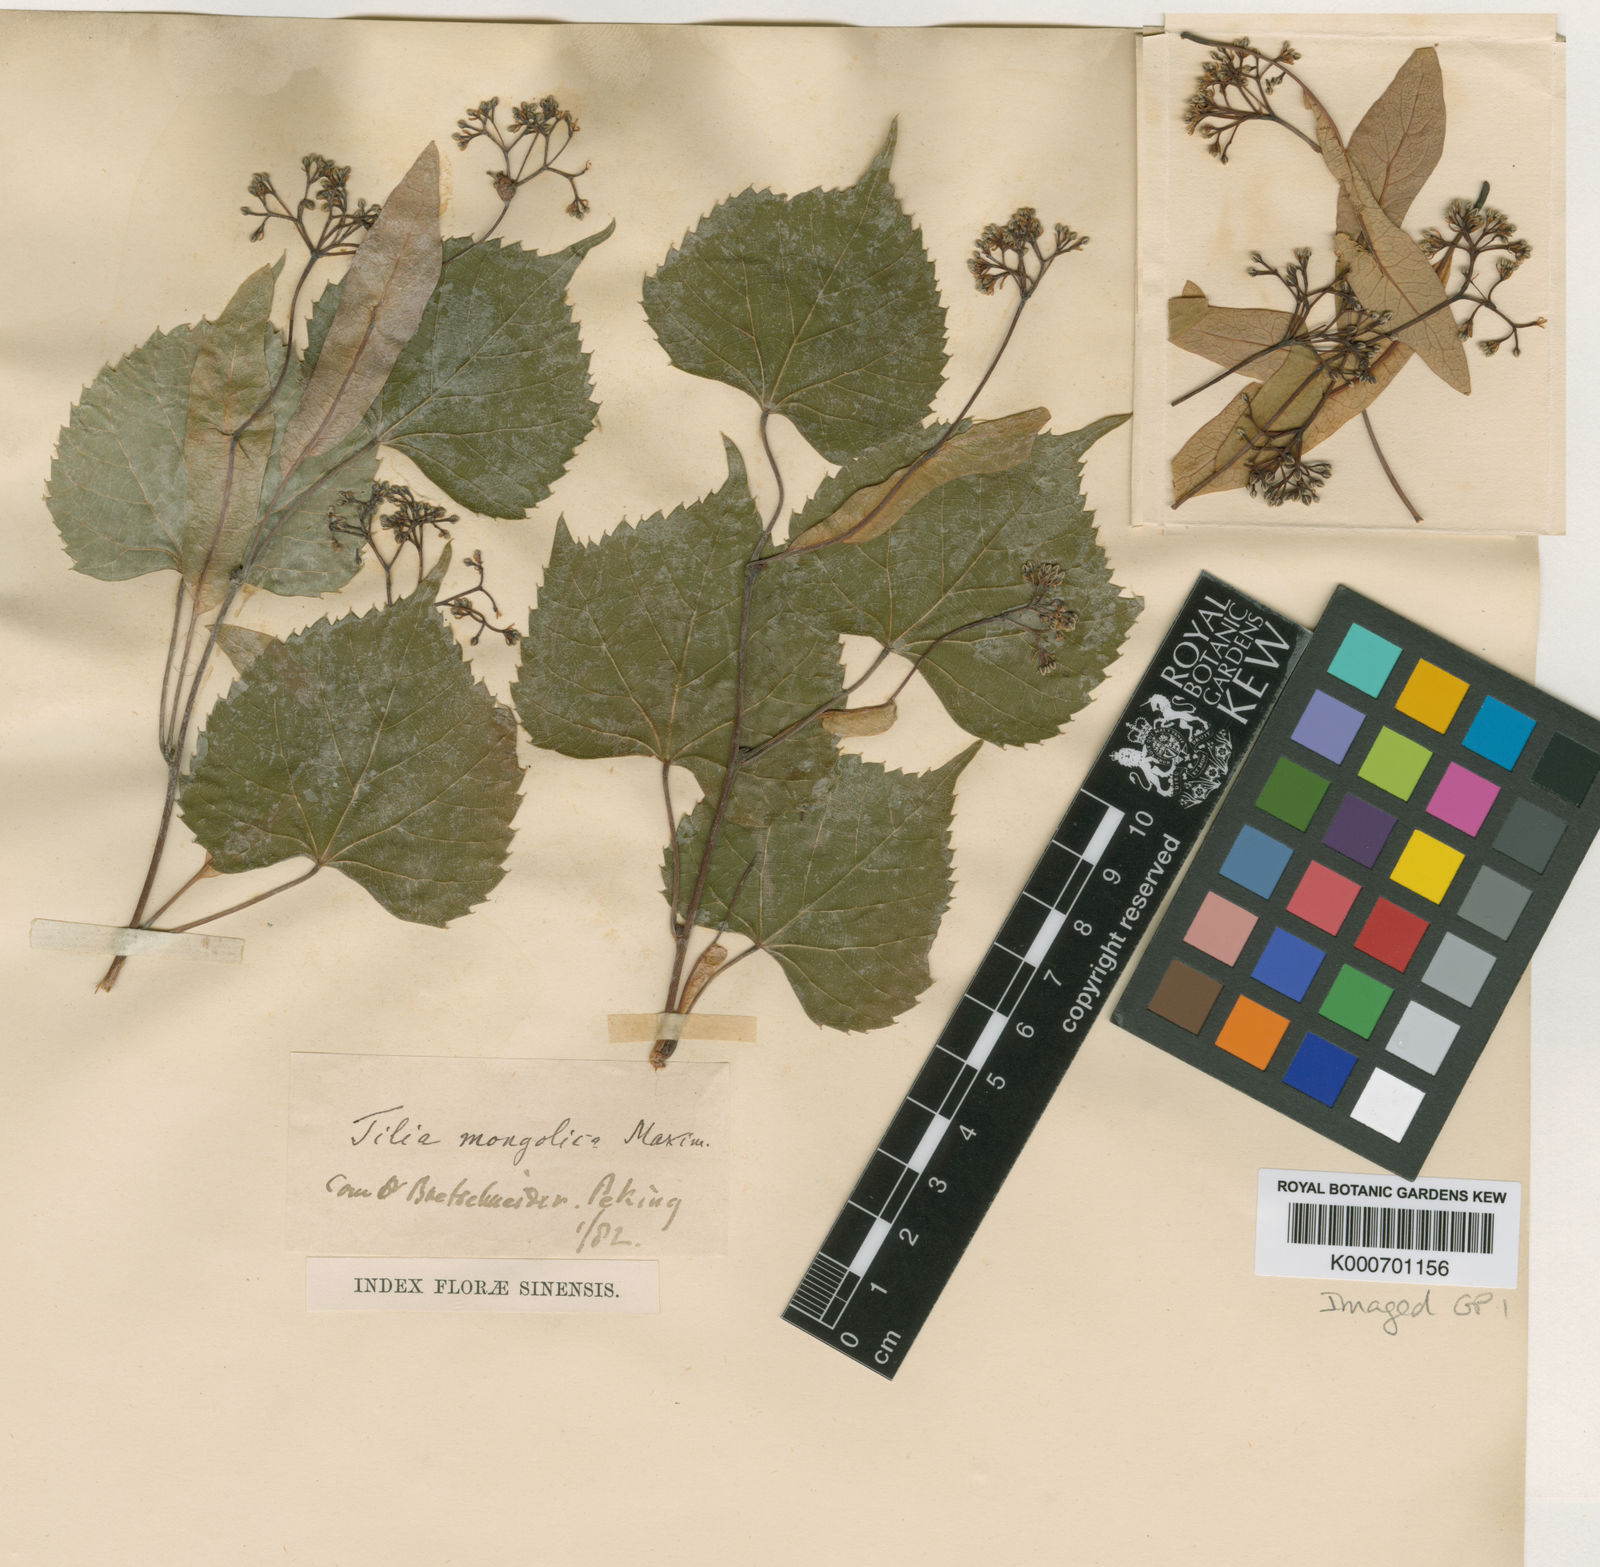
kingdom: Plantae
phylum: Tracheophyta
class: Magnoliopsida
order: Malvales
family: Malvaceae
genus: Tilia
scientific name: Tilia mongolica
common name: Mongolian lime
